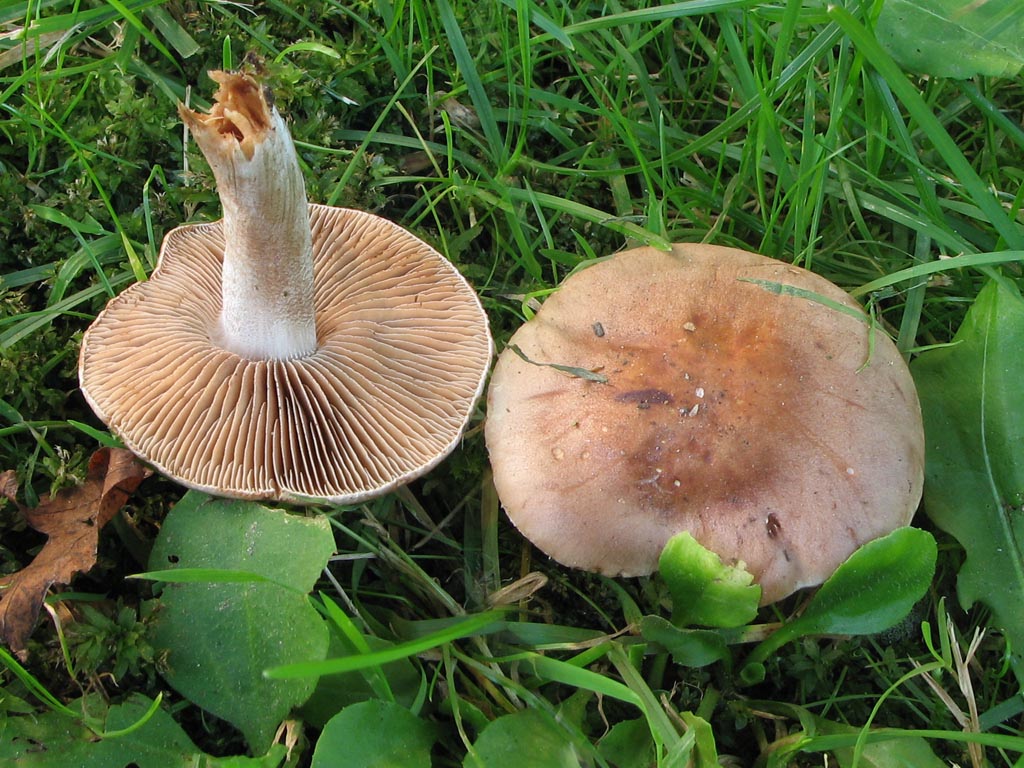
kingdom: Fungi
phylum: Basidiomycota
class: Agaricomycetes
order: Agaricales
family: Hymenogastraceae
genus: Hebeloma
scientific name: Hebeloma theobrominum
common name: rødbrun tåreblad
